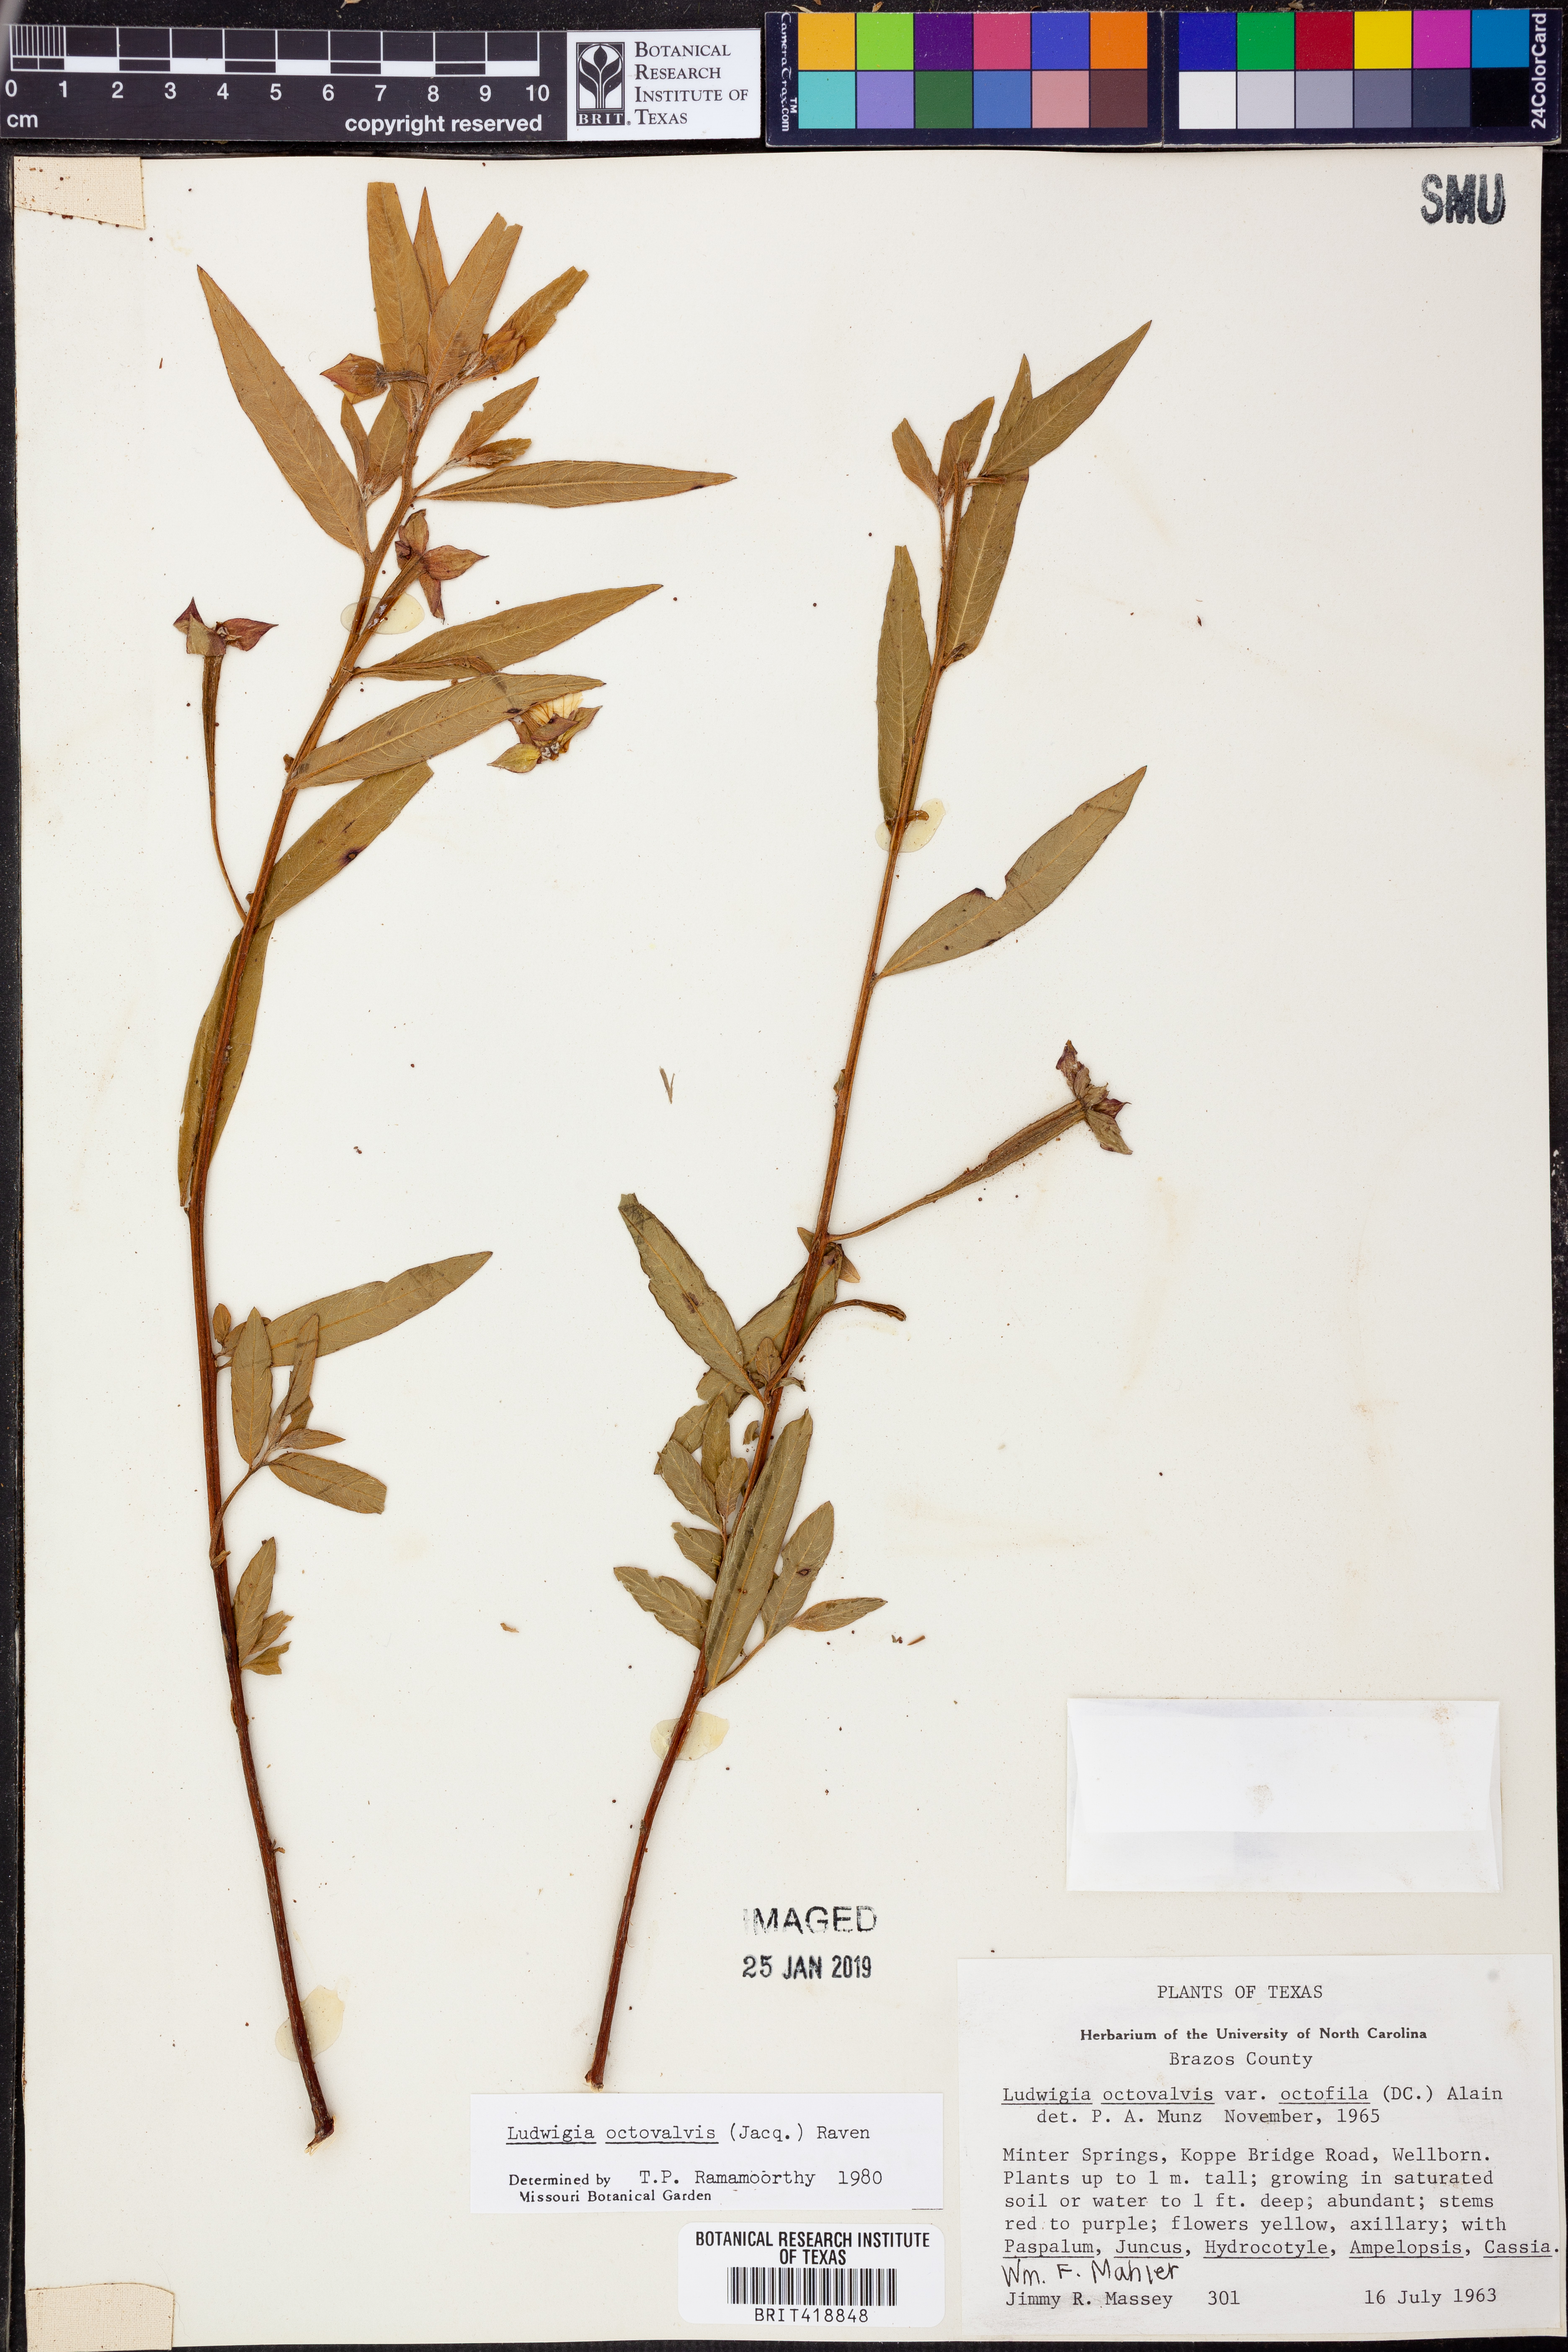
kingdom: Plantae
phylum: Tracheophyta
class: Magnoliopsida
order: Myrtales
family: Onagraceae
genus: Ludwigia
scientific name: Ludwigia octovalvis
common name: Water-primrose
